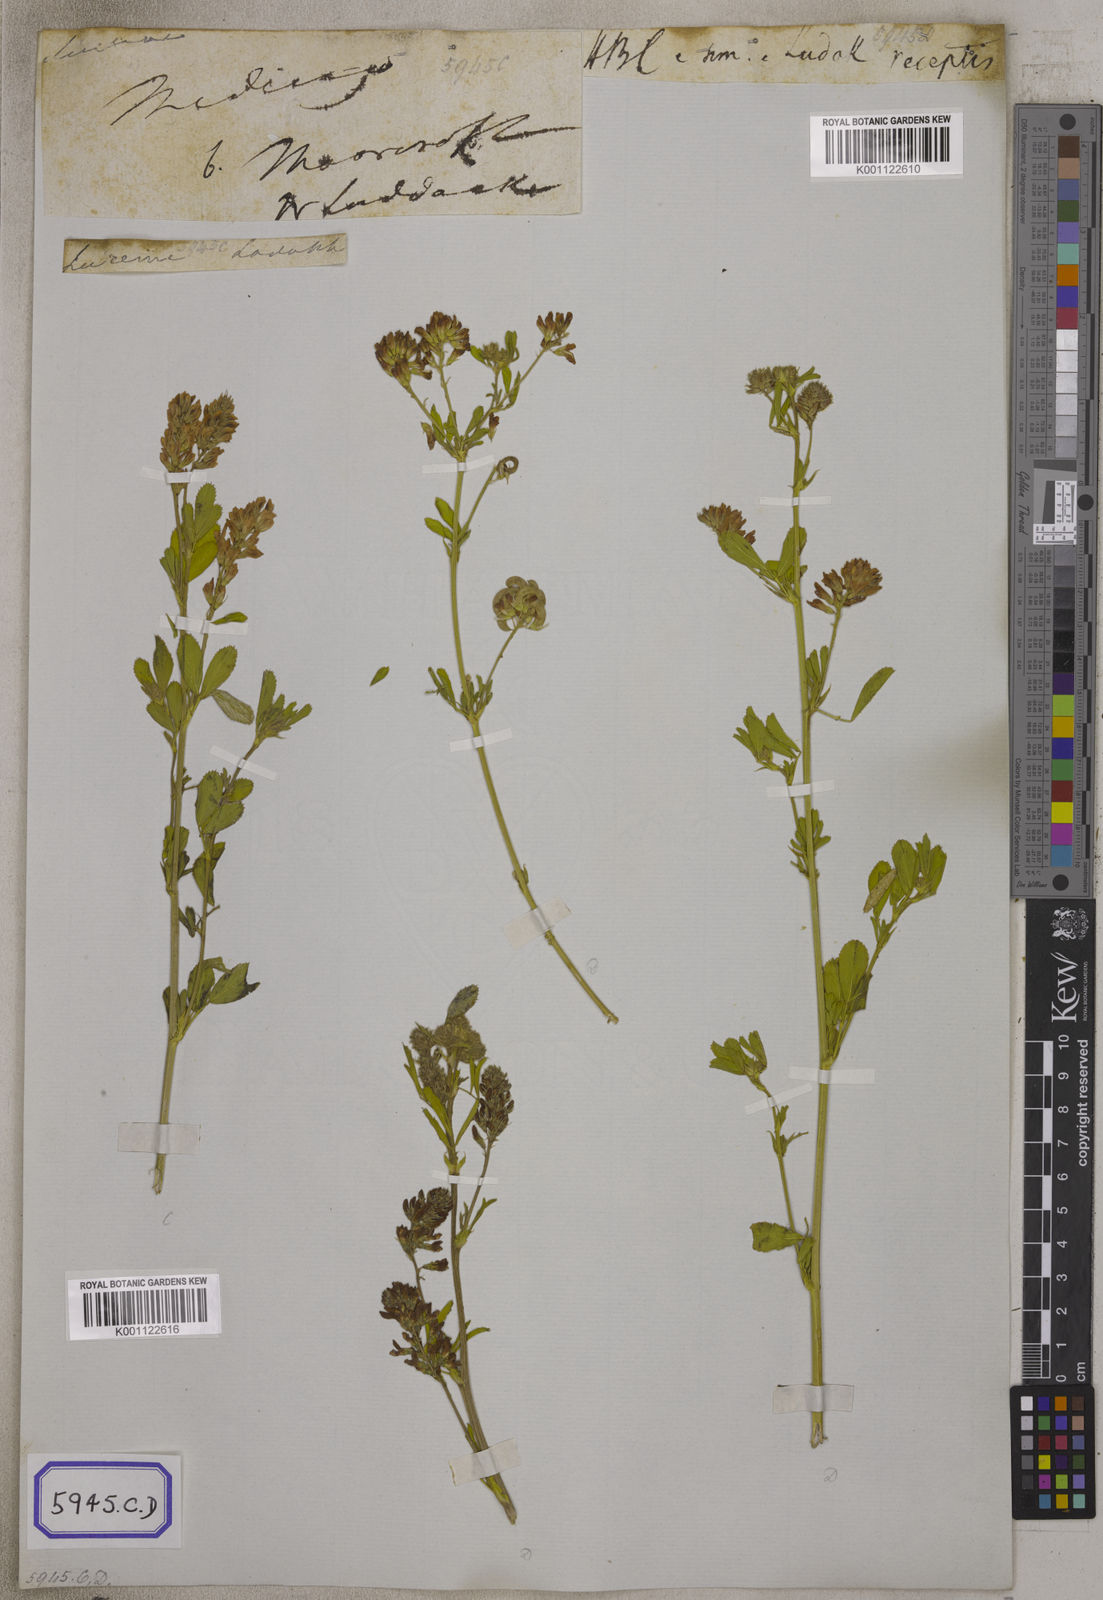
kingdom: Plantae
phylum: Tracheophyta
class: Magnoliopsida
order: Fabales
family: Fabaceae
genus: Medicago
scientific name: Medicago sativa
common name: Alfalfa
